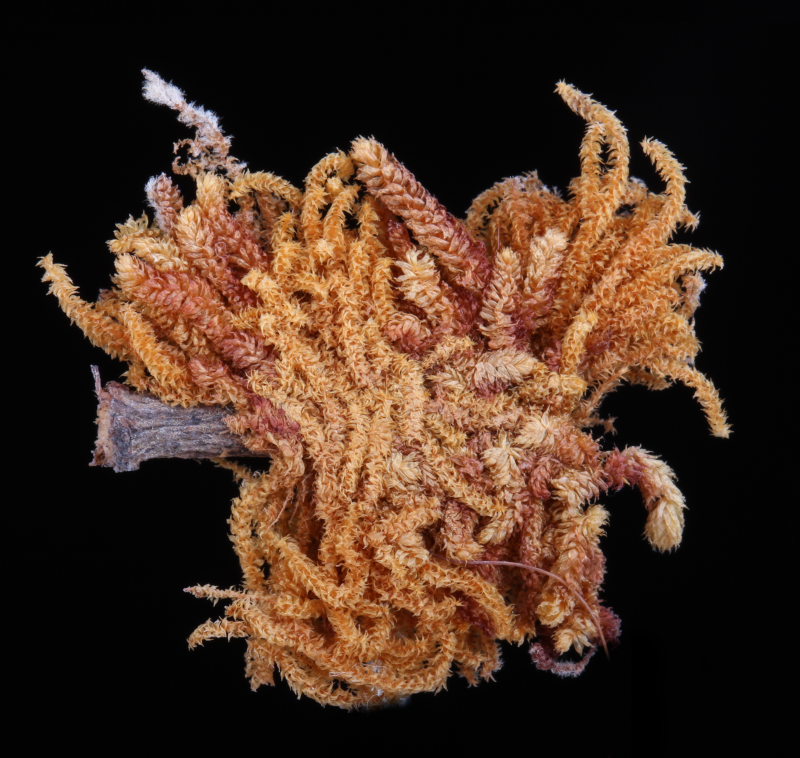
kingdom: Plantae
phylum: Bryophyta
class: Bryopsida
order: Hypnales
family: Symphyodontaceae
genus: Chaetomitriopsis
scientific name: Chaetomitriopsis glaucocarpos
